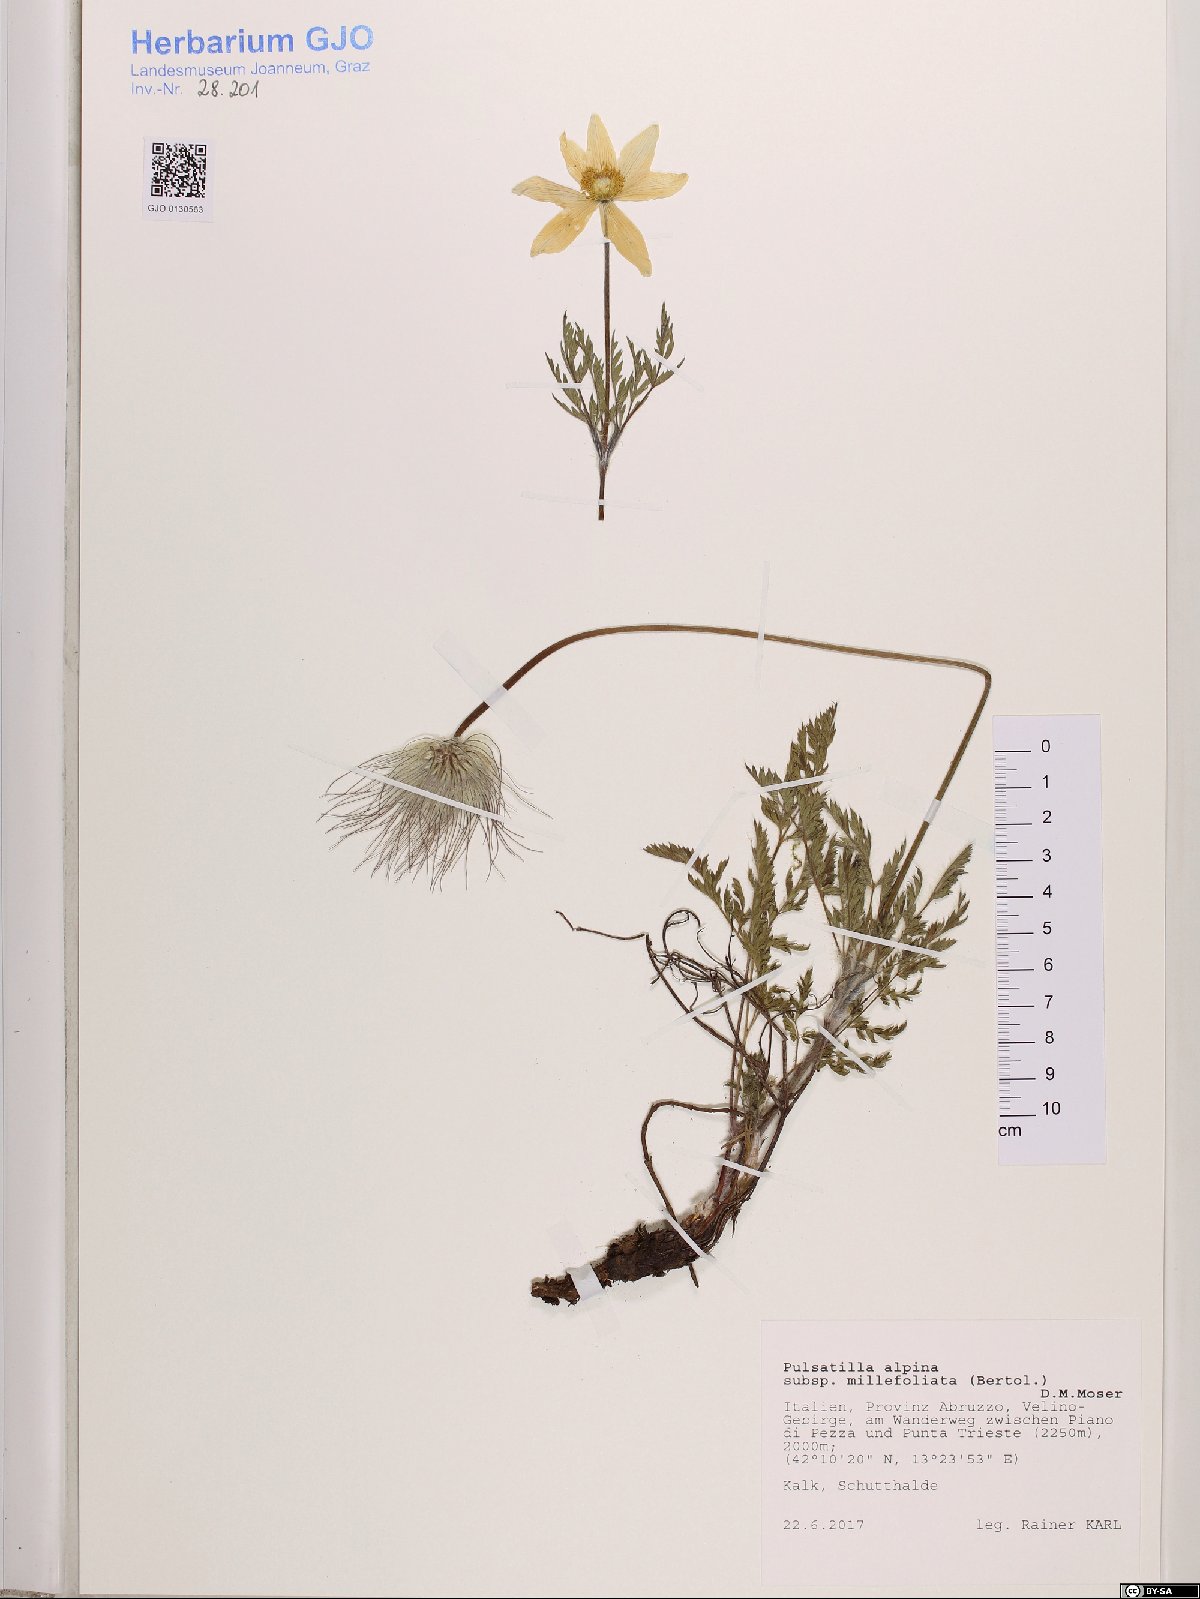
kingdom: Plantae
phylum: Tracheophyta
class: Magnoliopsida
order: Ranunculales
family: Ranunculaceae
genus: Pulsatilla
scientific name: Pulsatilla alpina
